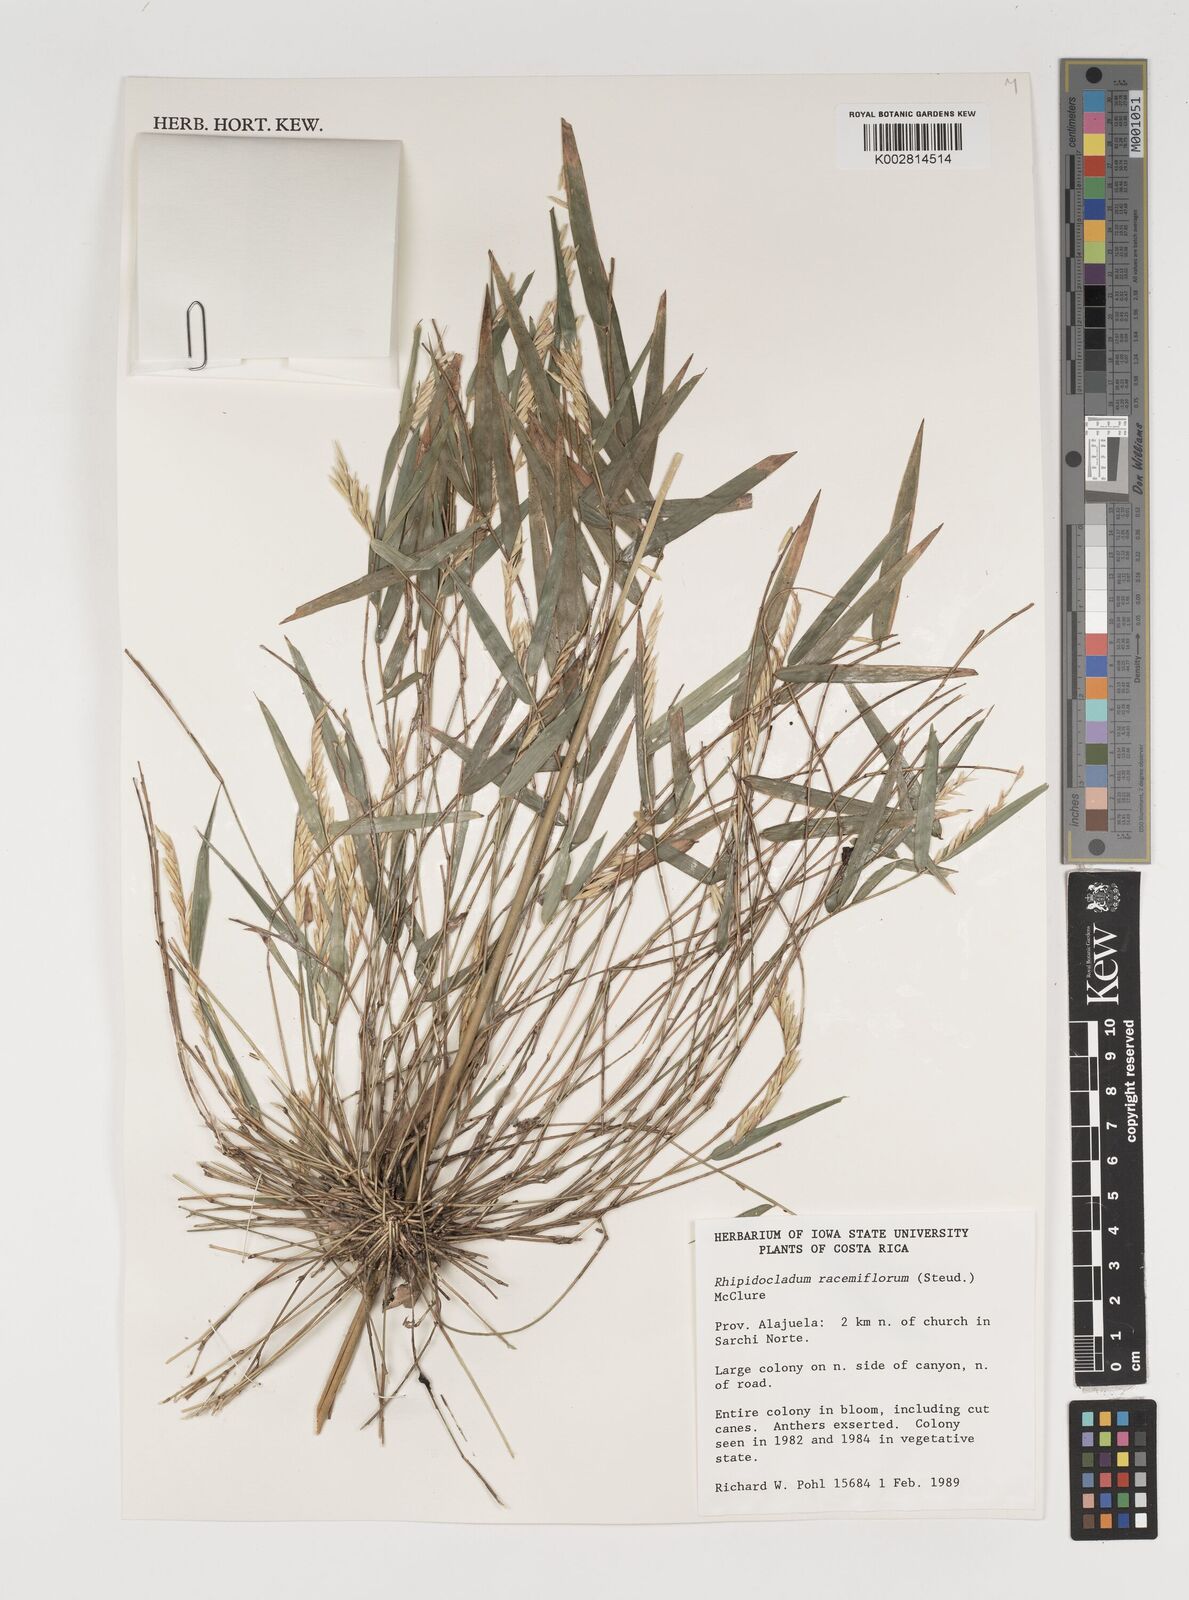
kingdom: Plantae
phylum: Tracheophyta
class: Liliopsida
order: Poales
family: Poaceae
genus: Rhipidocladum
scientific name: Rhipidocladum racemiflorum
